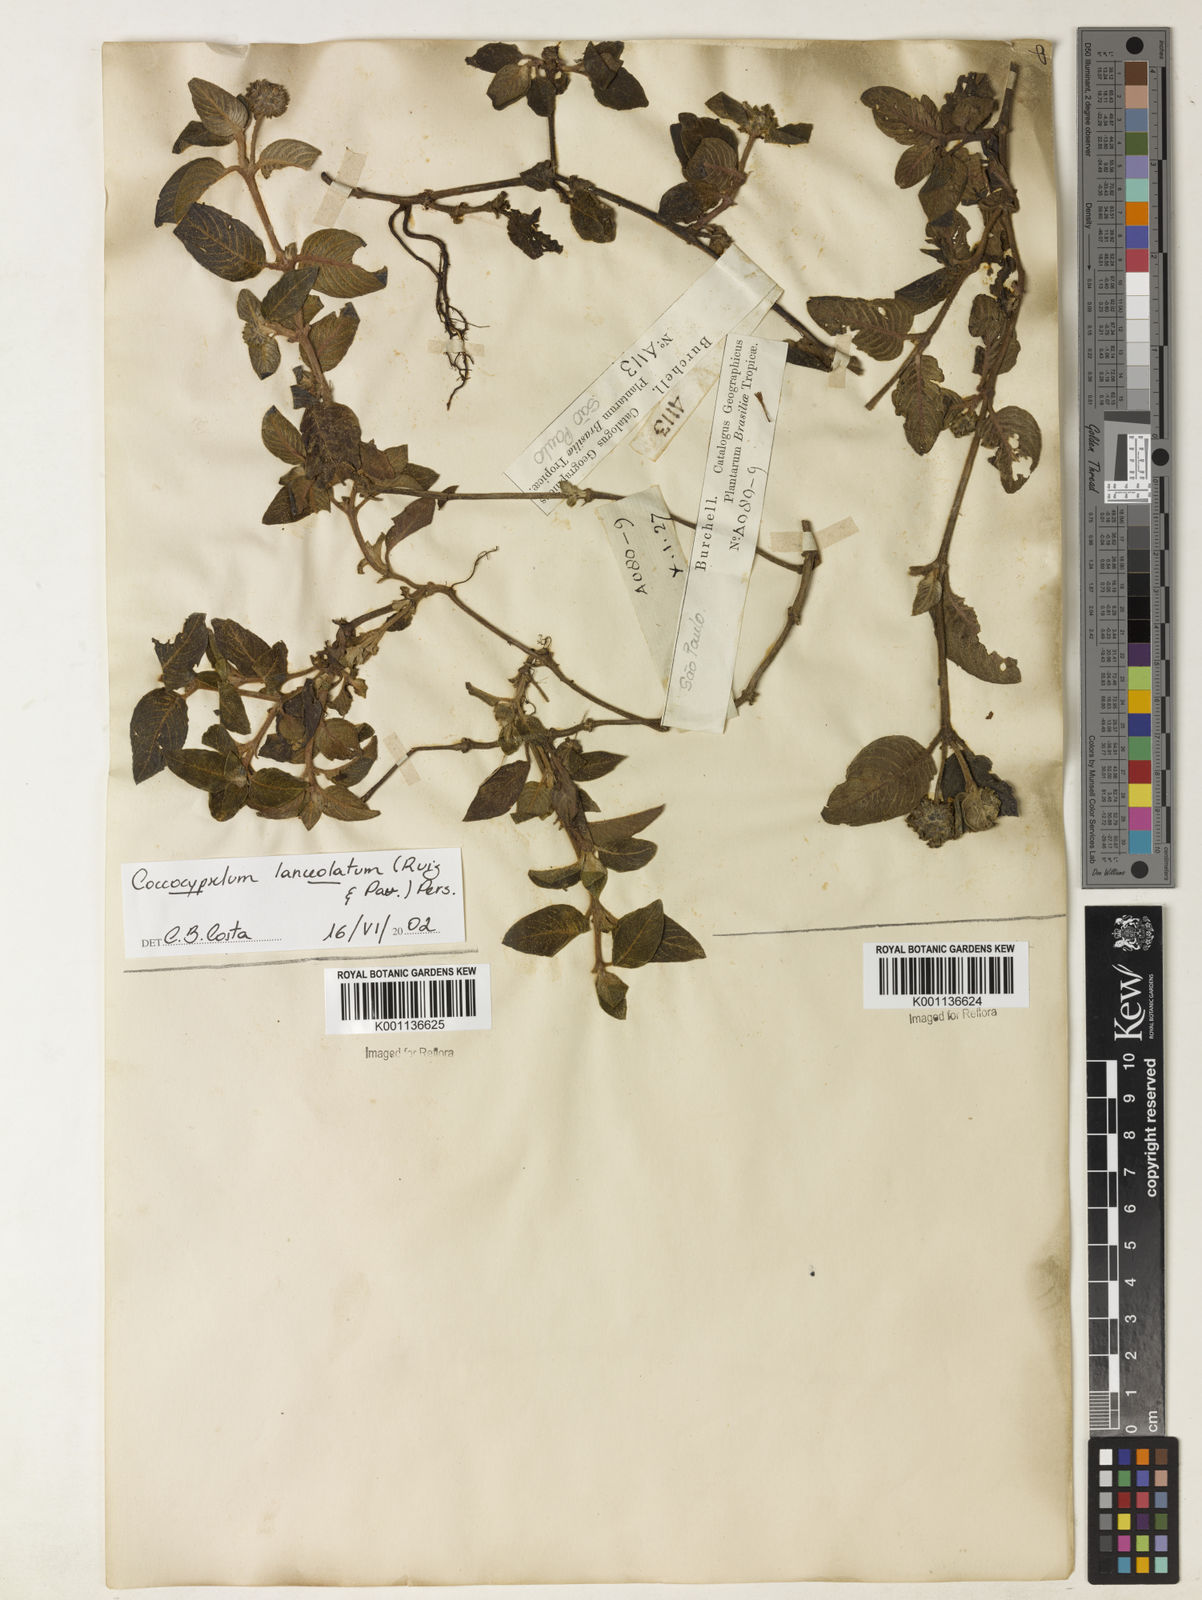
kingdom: Plantae
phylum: Tracheophyta
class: Magnoliopsida
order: Gentianales
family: Rubiaceae
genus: Cordiera
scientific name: Cordiera macrophylla
